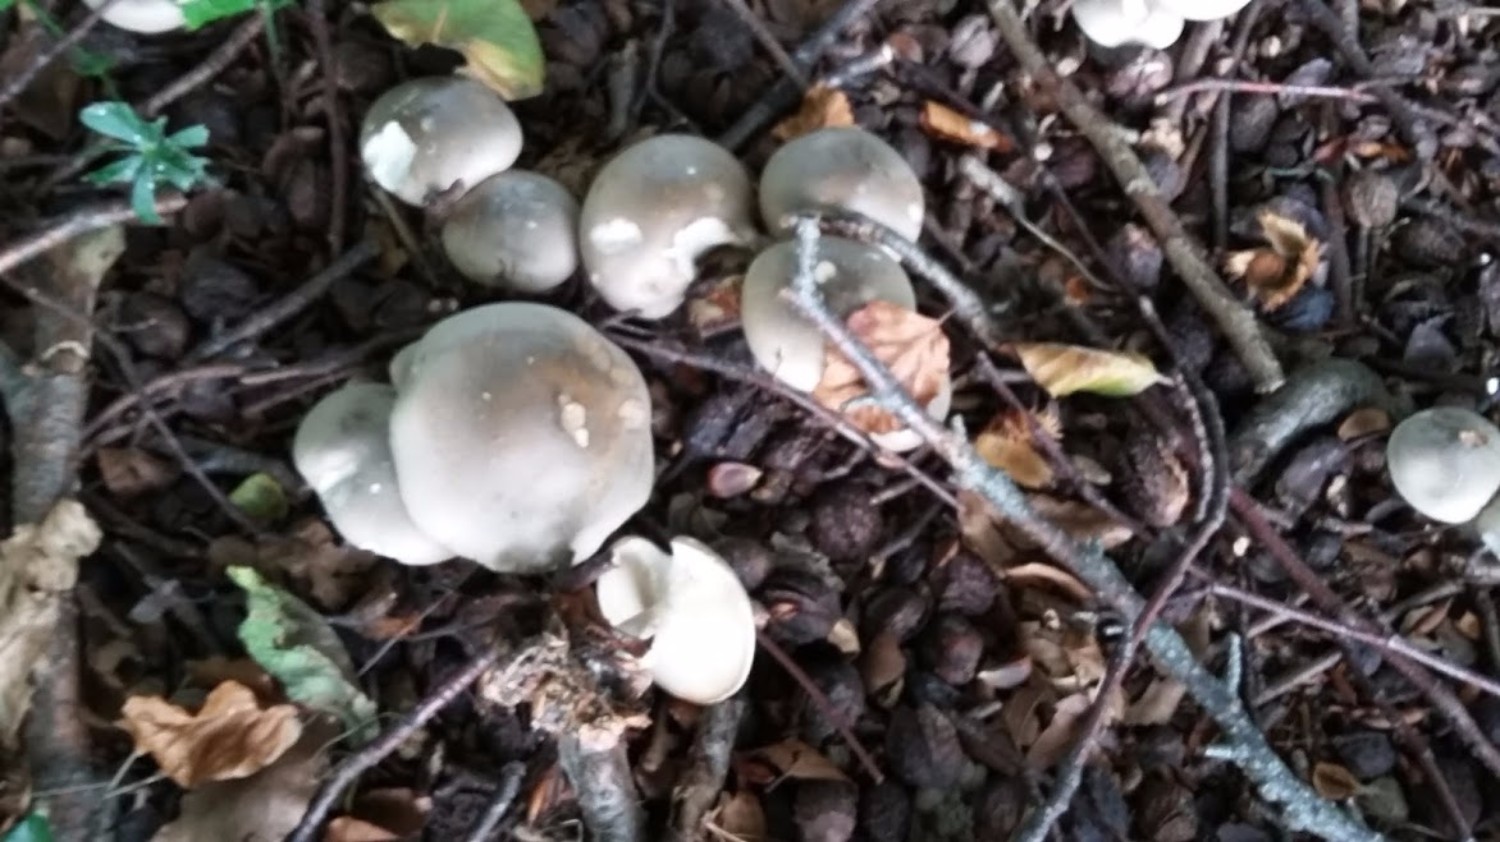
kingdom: Fungi
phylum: Basidiomycota
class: Agaricomycetes
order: Agaricales
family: Tricholomataceae
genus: Clitocybe
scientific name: Clitocybe nebularis
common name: tåge-tragthat
